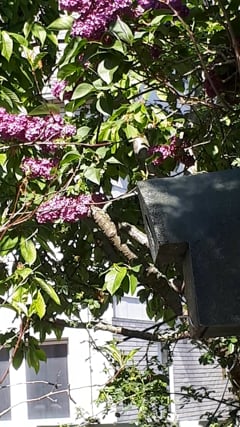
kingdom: Animalia
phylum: Chordata
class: Aves
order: Passeriformes
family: Paridae
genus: Parus
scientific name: Parus major
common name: Great tit
